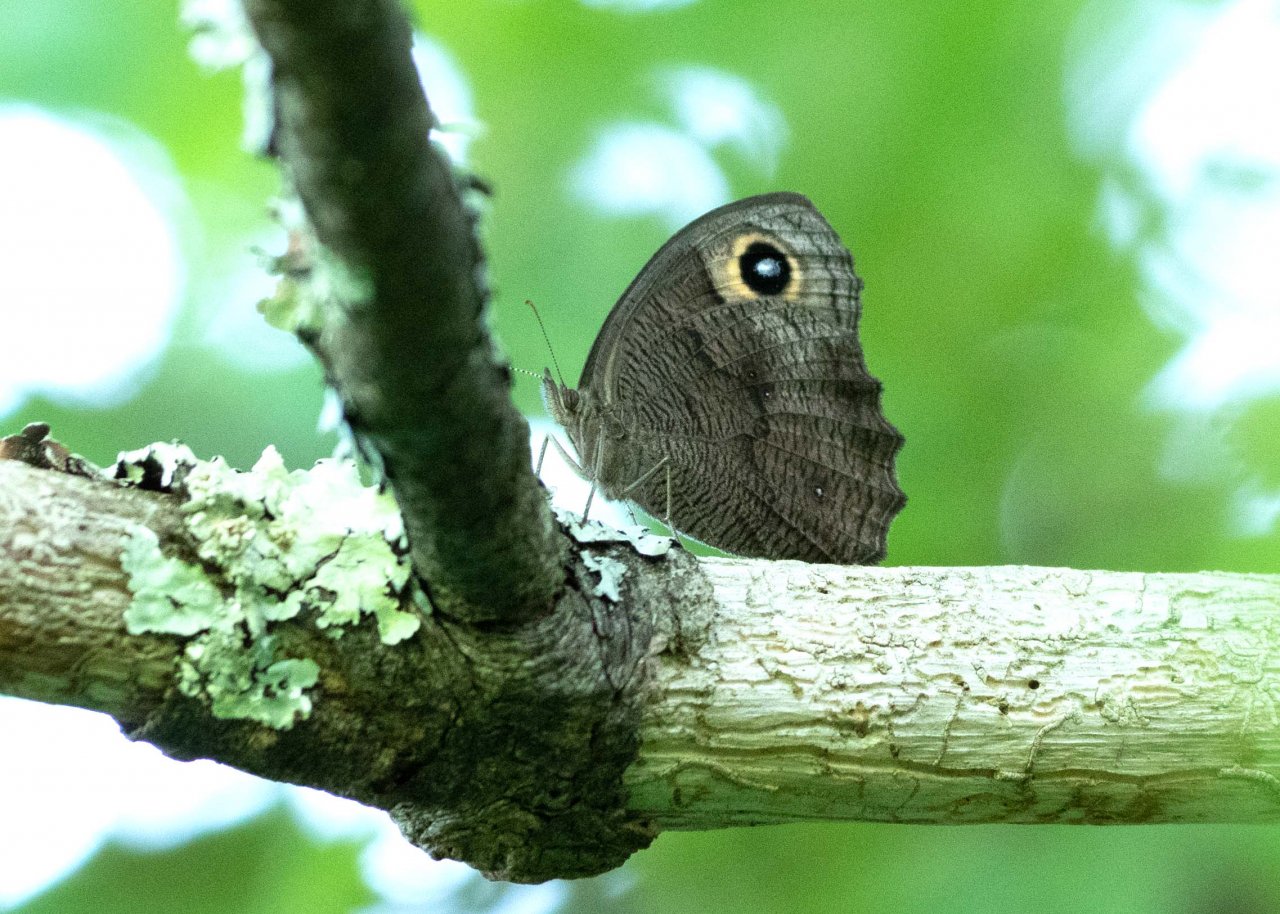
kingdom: Animalia
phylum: Arthropoda
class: Insecta
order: Lepidoptera
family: Nymphalidae
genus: Cercyonis
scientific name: Cercyonis pegala
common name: Common Wood-Nymph
